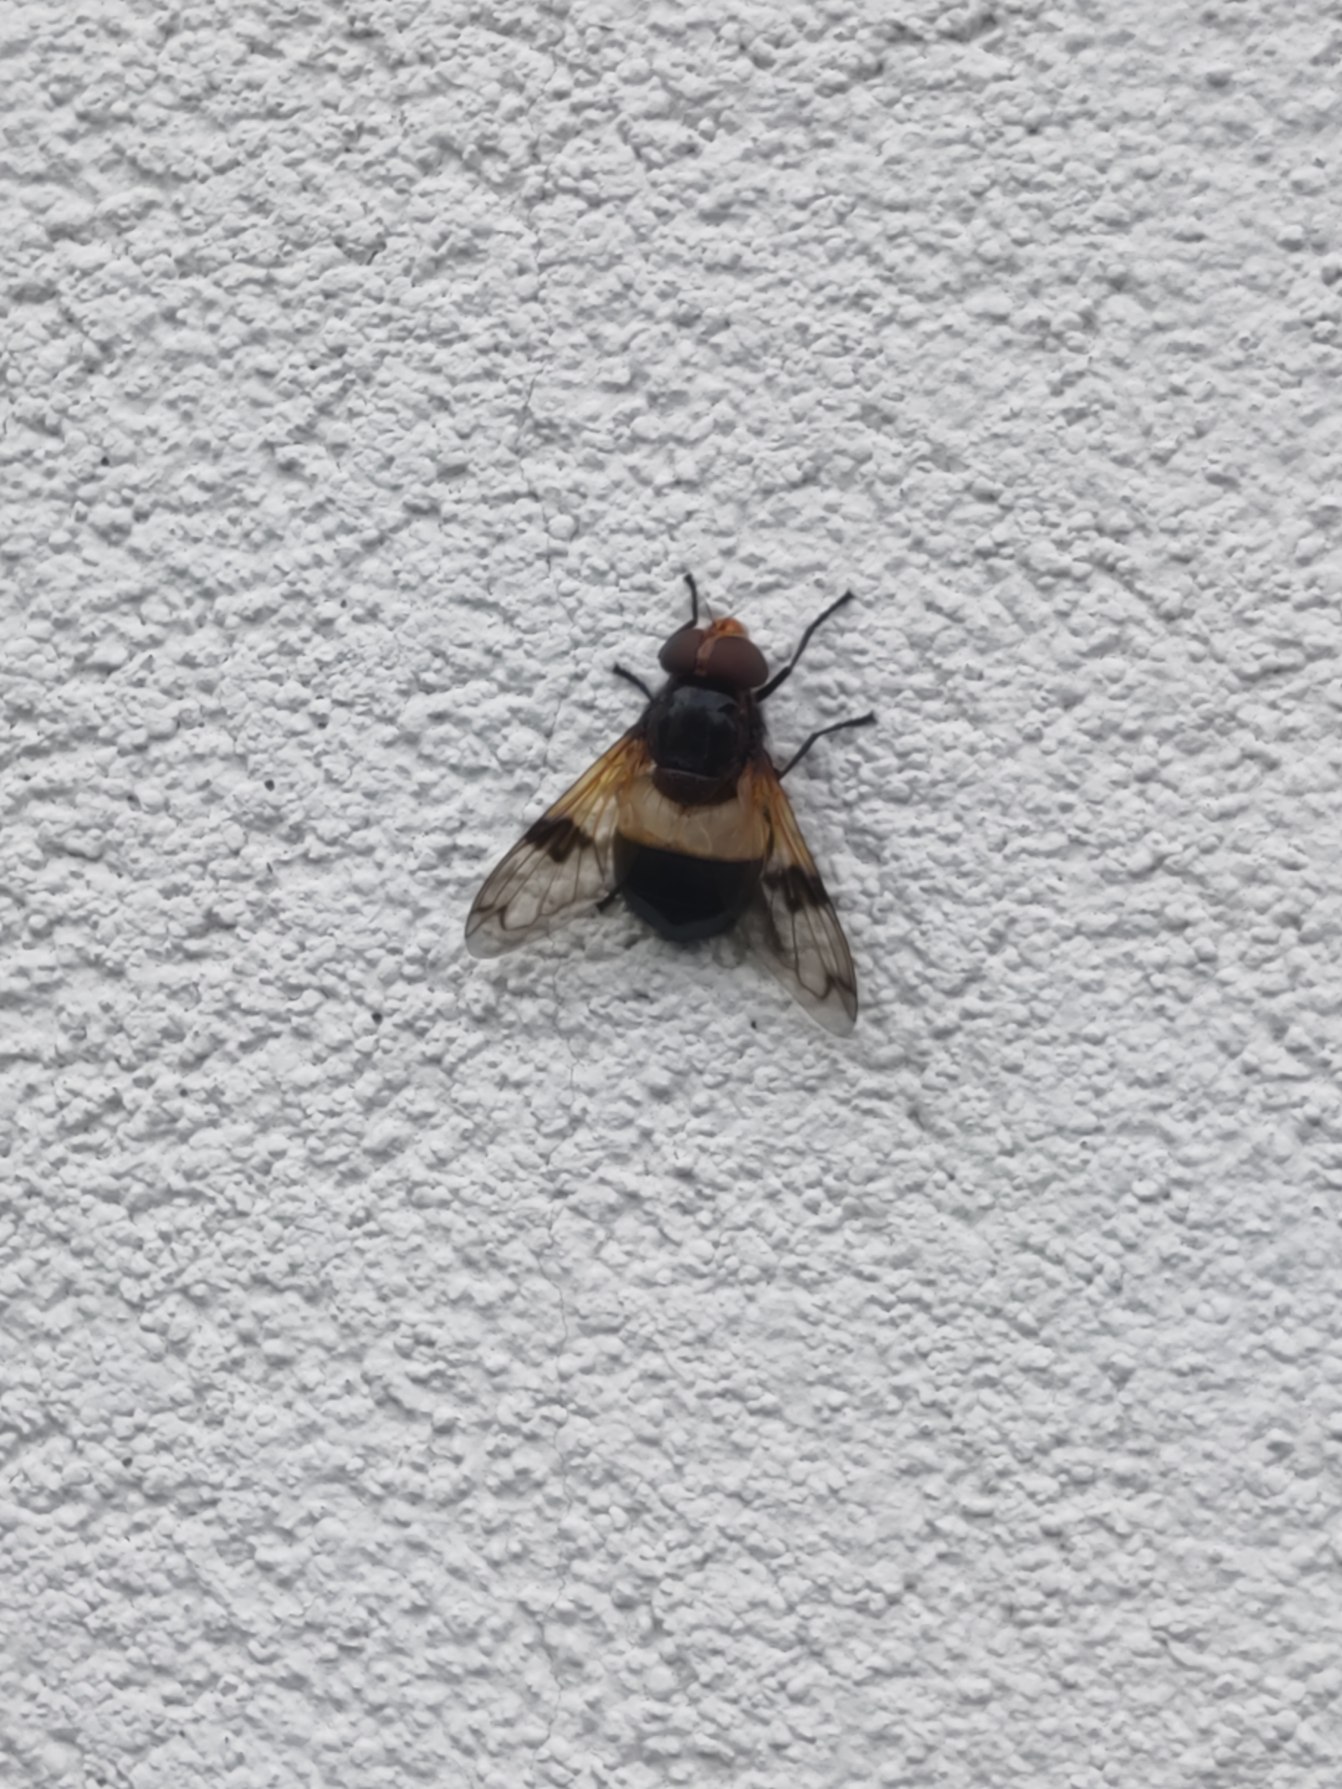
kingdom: Animalia
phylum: Arthropoda
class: Insecta
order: Diptera
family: Syrphidae
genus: Volucella
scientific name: Volucella pellucens
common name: Hvidbåndet humlesvirreflue
